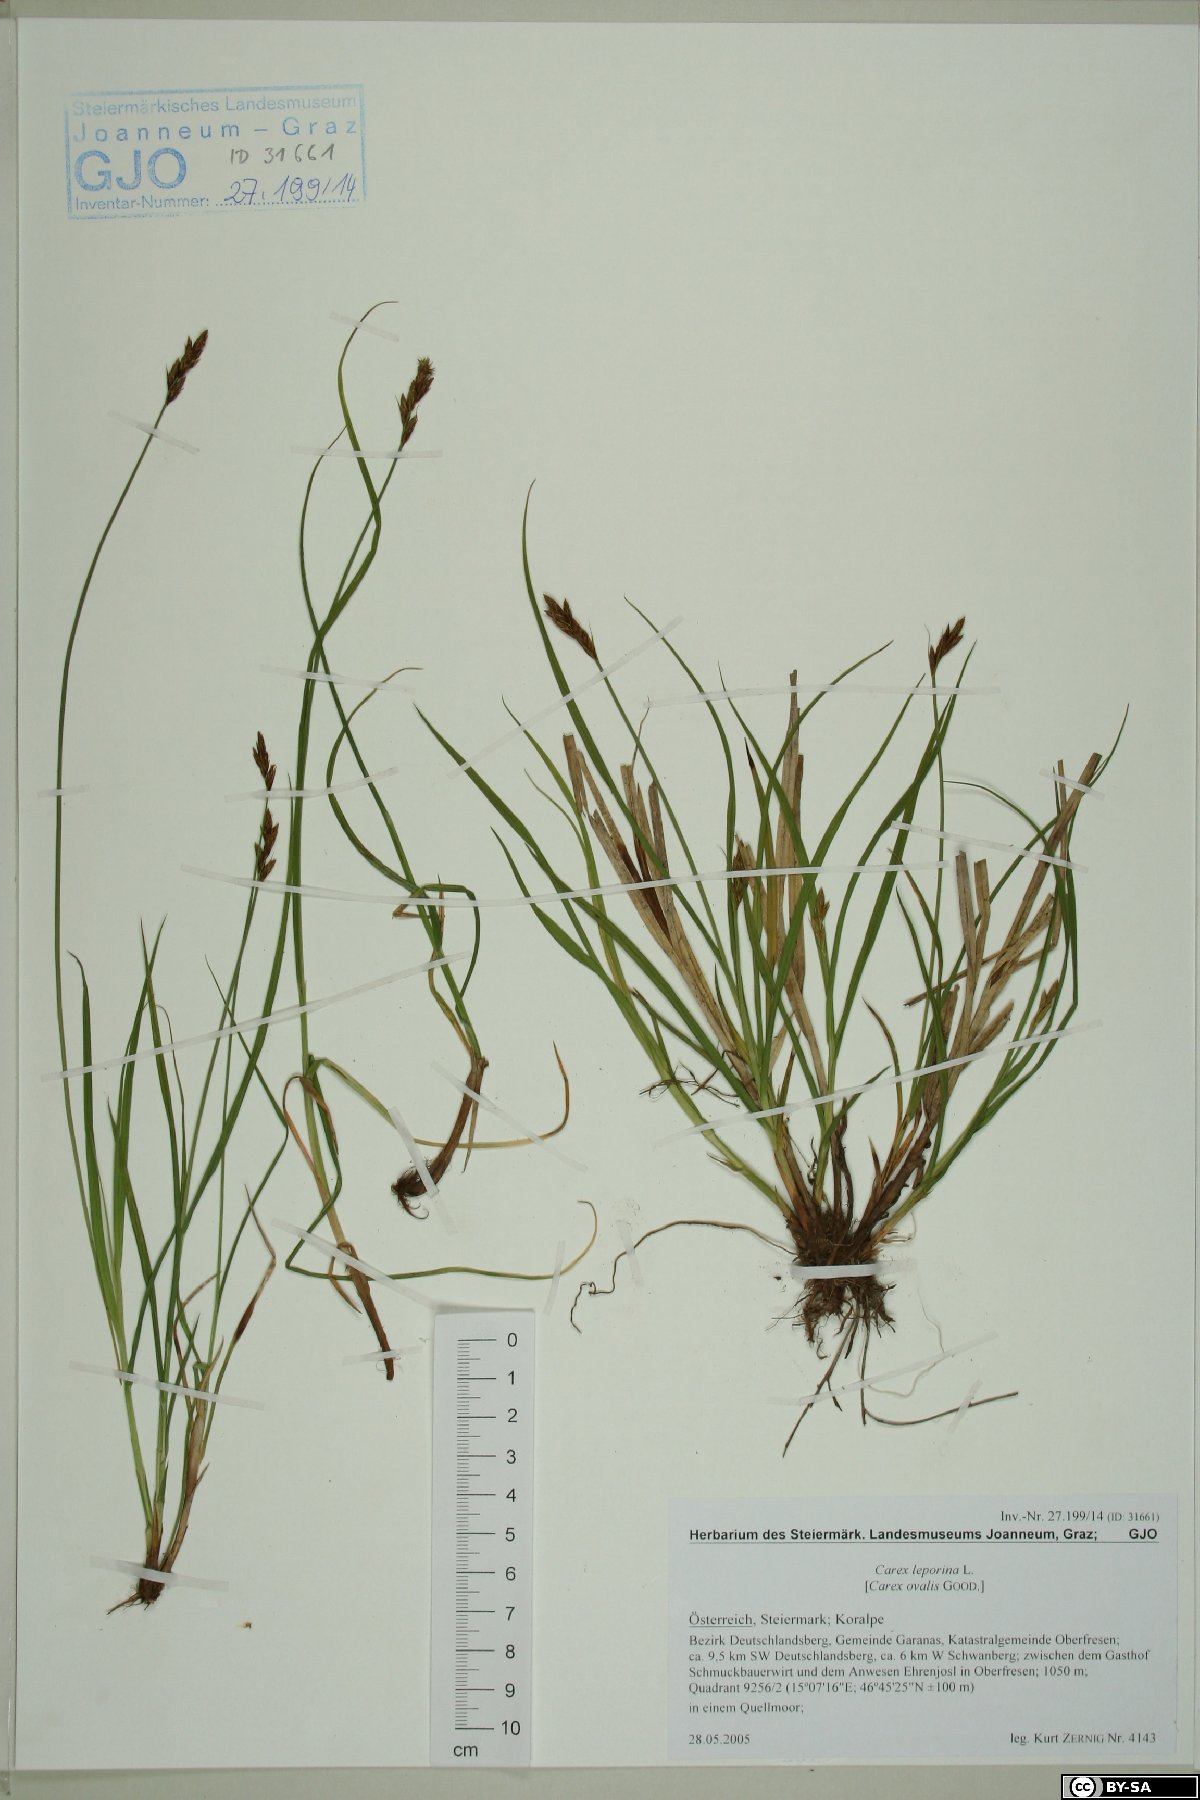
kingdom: Plantae
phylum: Tracheophyta
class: Liliopsida
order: Poales
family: Cyperaceae
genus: Carex
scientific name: Carex leporina
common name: Oval sedge
